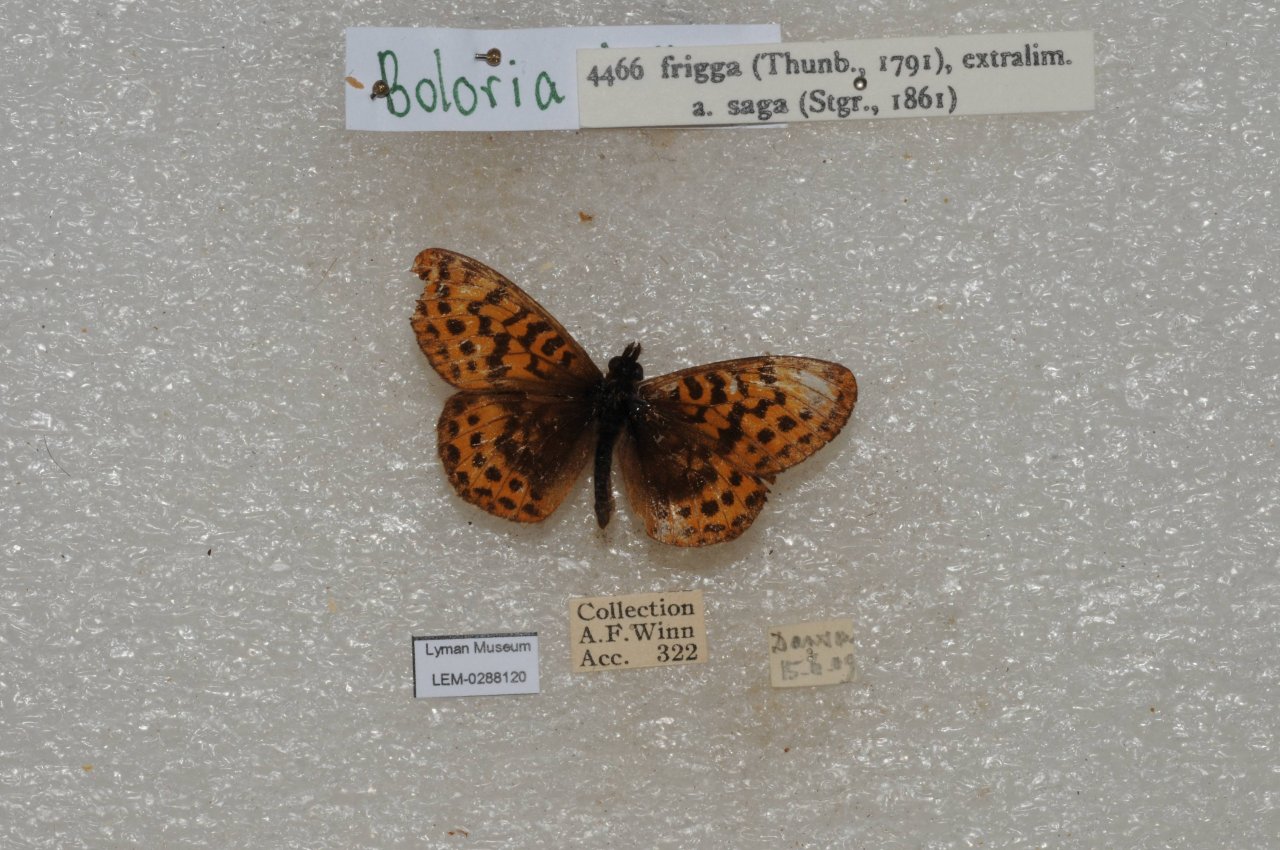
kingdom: Animalia
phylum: Arthropoda
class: Insecta
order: Lepidoptera
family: Nymphalidae
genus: Boloria
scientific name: Boloria frigga
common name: Frigga Fritillary
